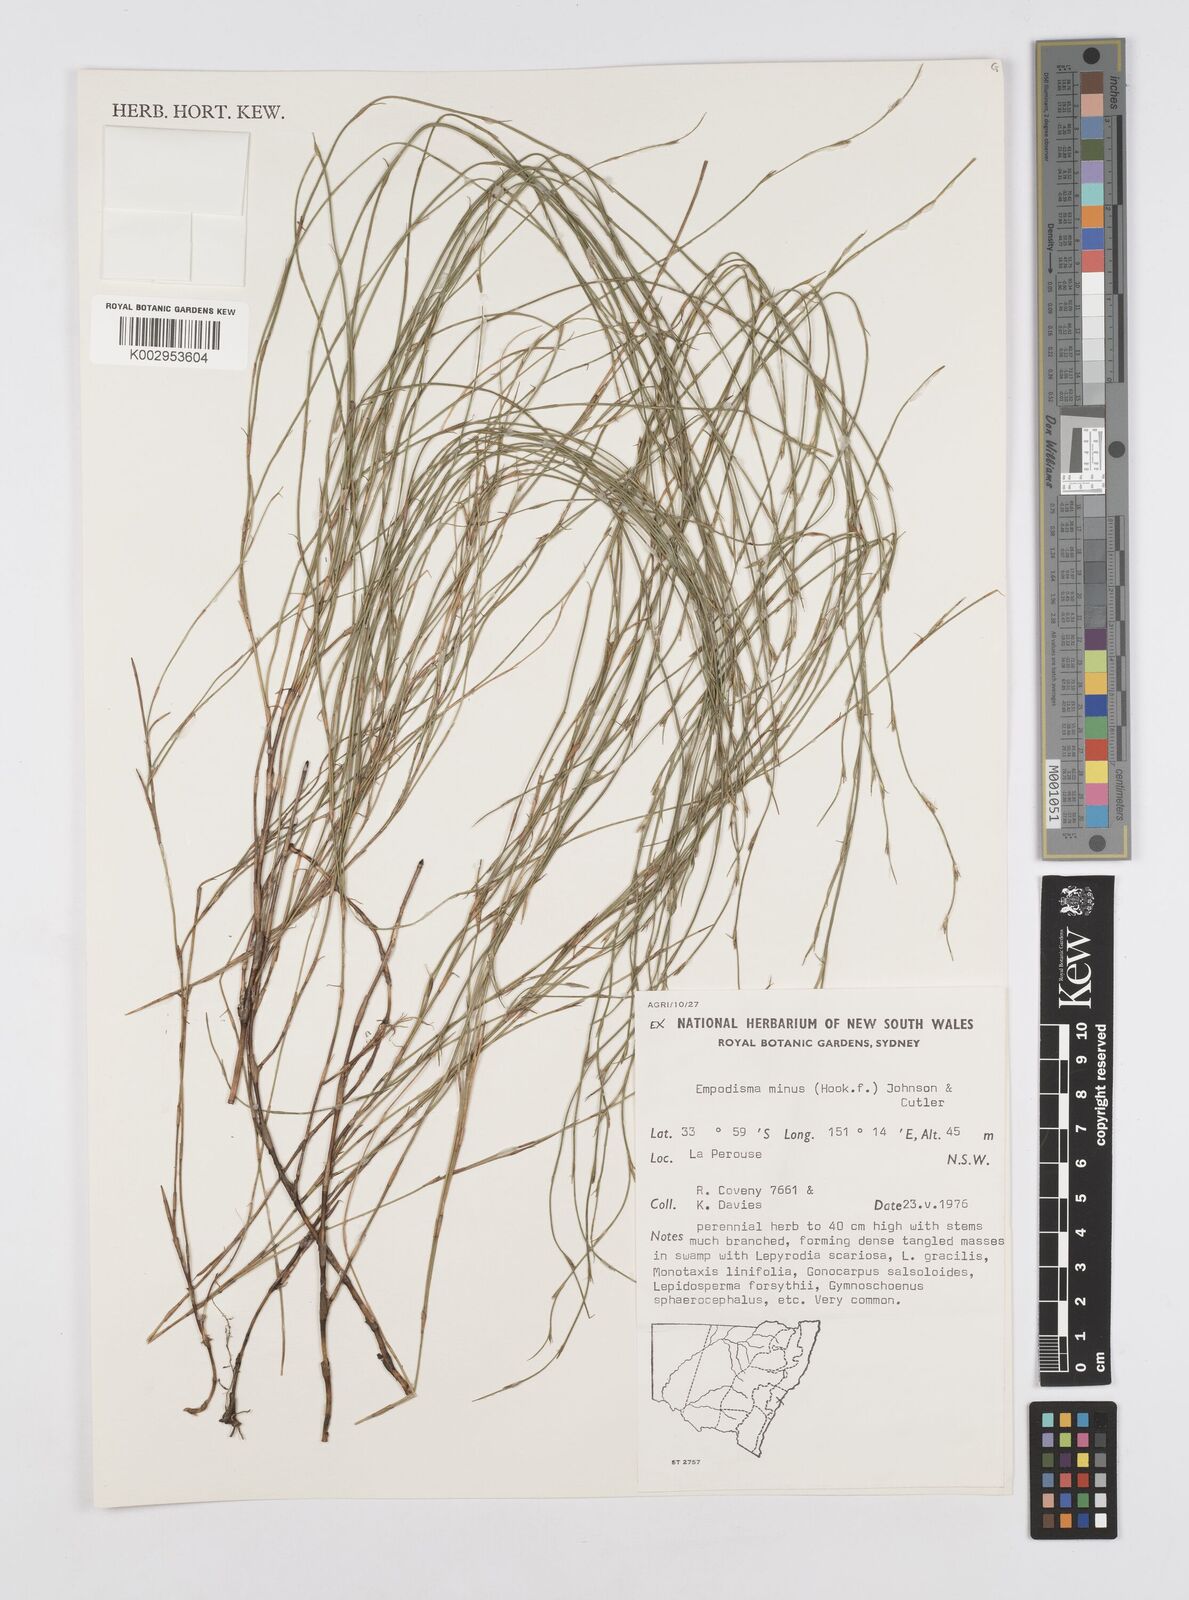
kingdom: Plantae
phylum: Tracheophyta
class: Liliopsida
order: Poales
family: Restionaceae
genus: Empodisma
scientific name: Empodisma minus
